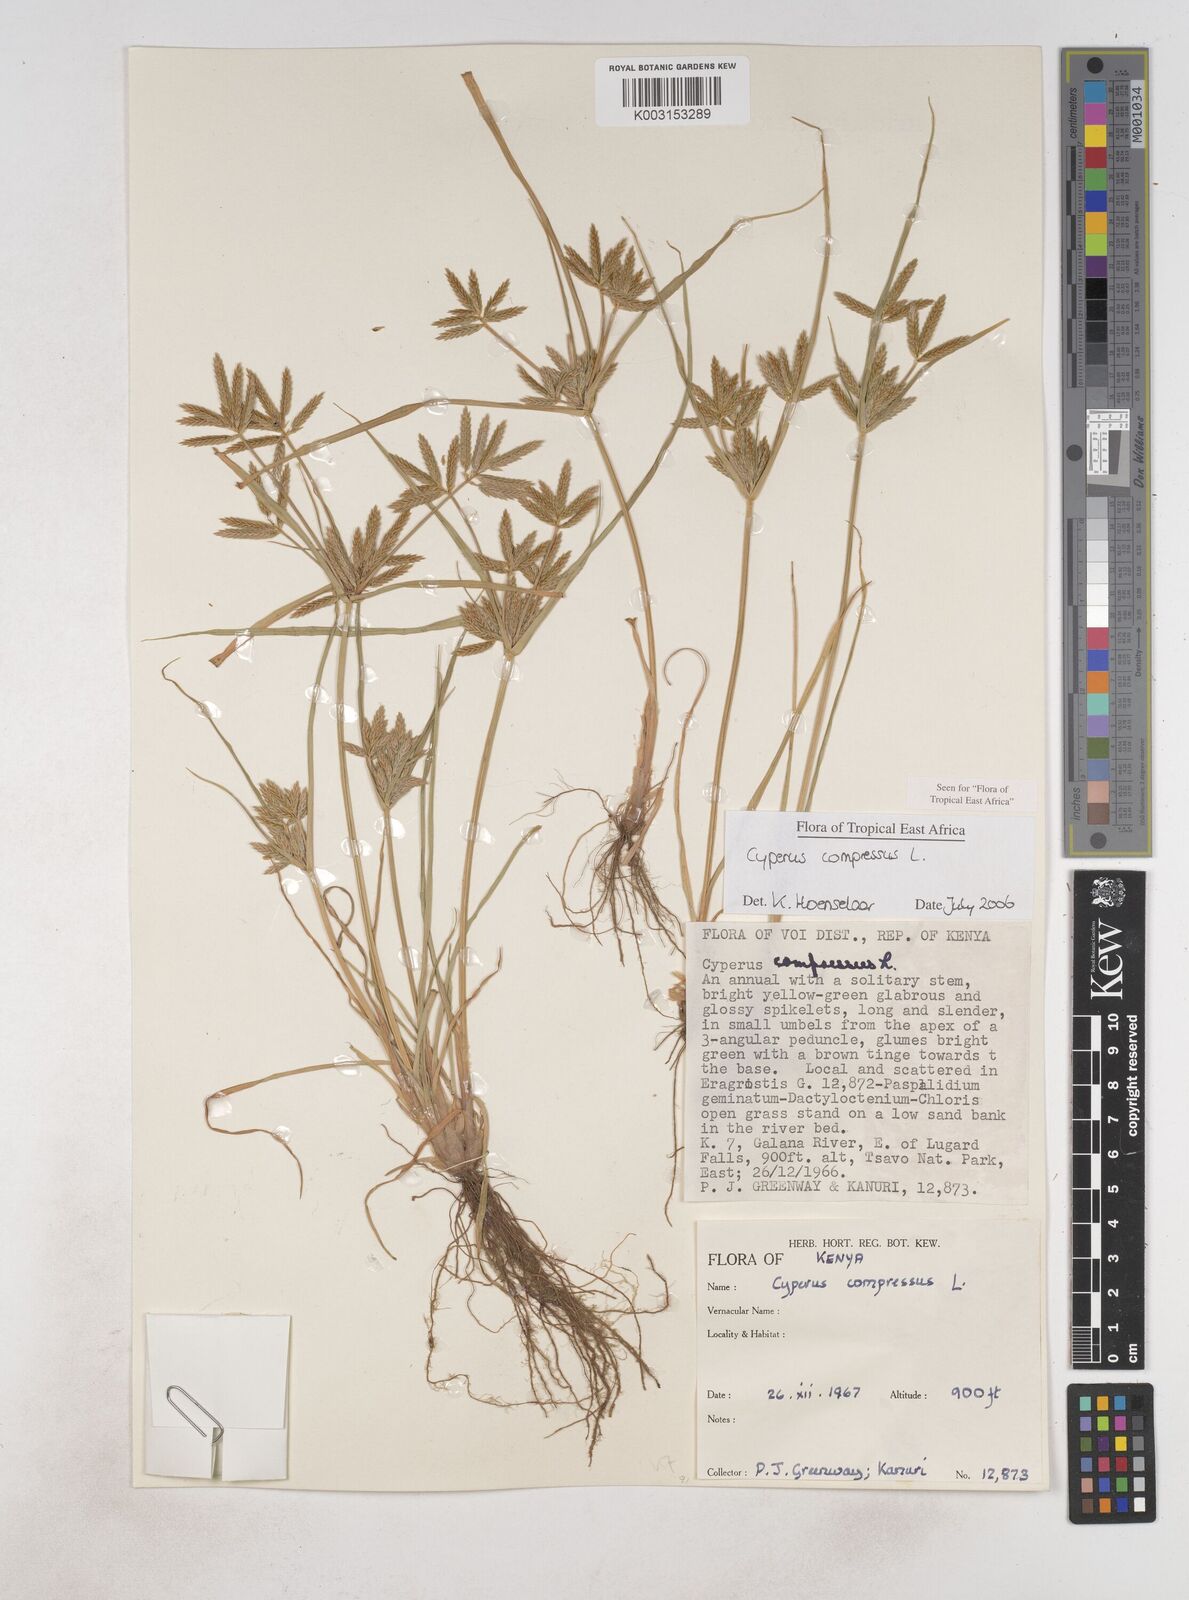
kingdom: Plantae
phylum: Tracheophyta
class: Liliopsida
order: Poales
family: Cyperaceae
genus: Cyperus
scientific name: Cyperus compressus
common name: Poorland flatsedge
